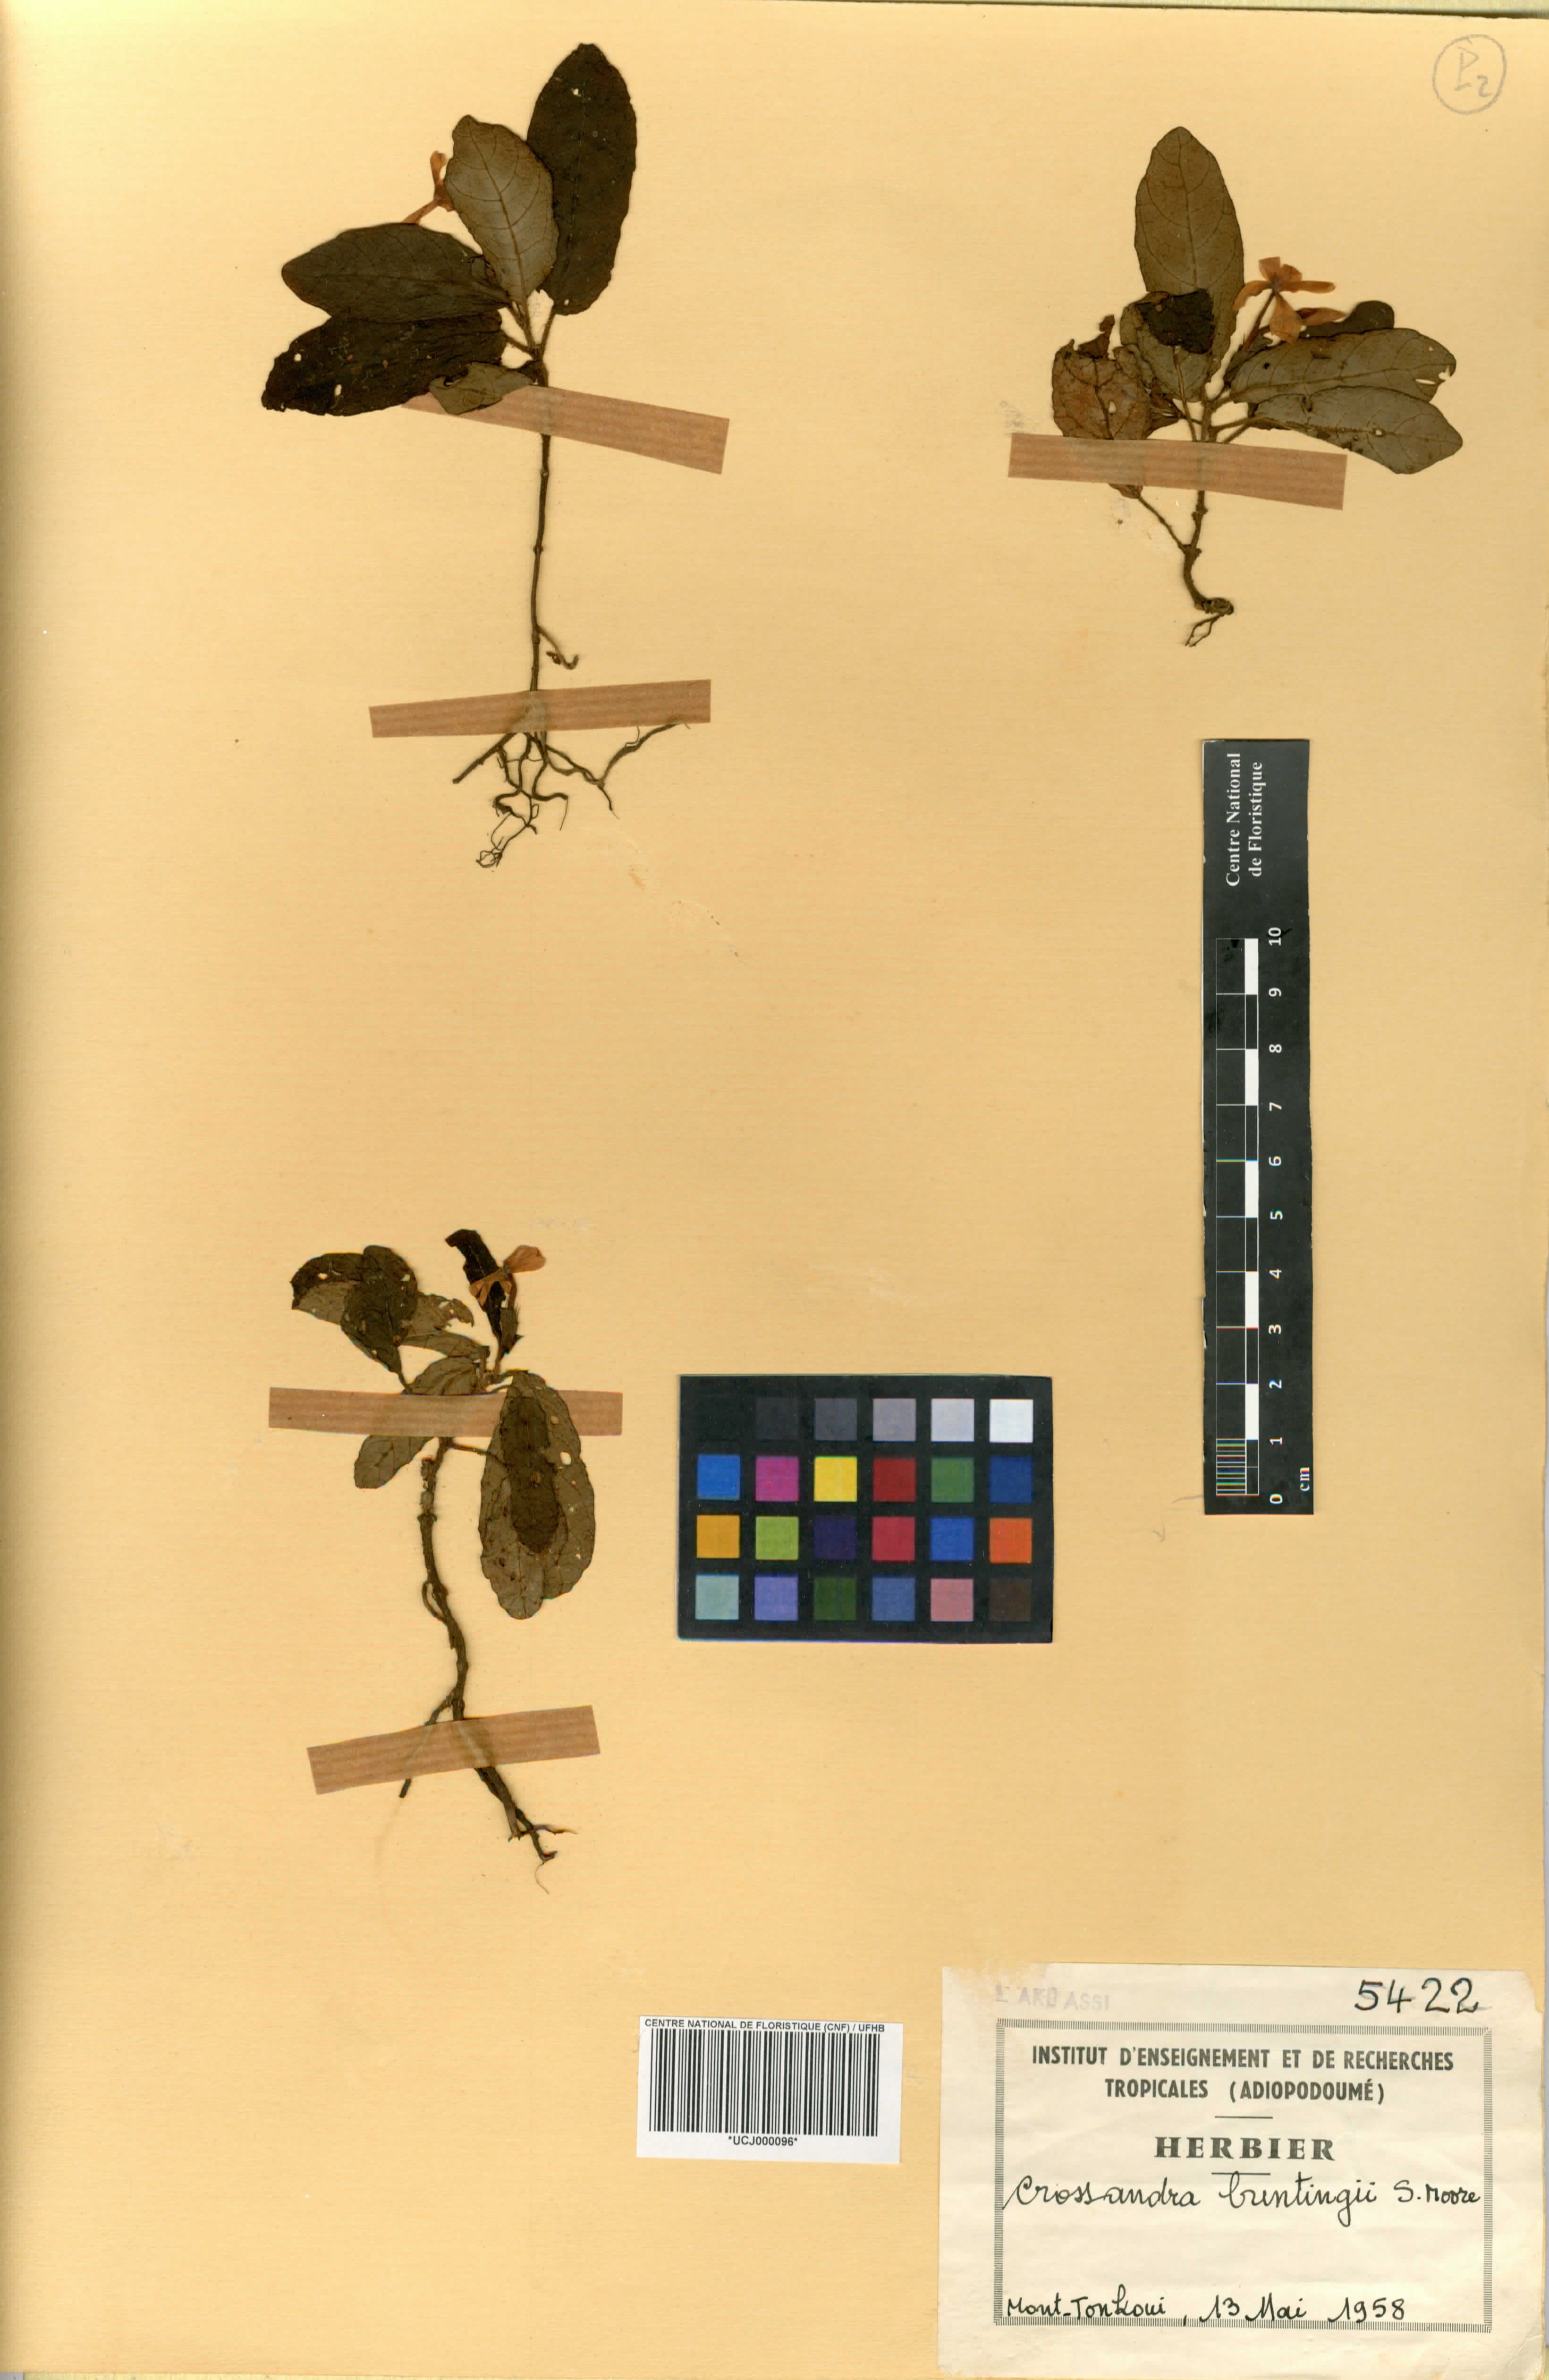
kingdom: Plantae
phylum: Tracheophyta
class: Magnoliopsida
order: Lamiales
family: Acanthaceae
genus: Stenandriopsis
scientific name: Stenandriopsis buntingii
